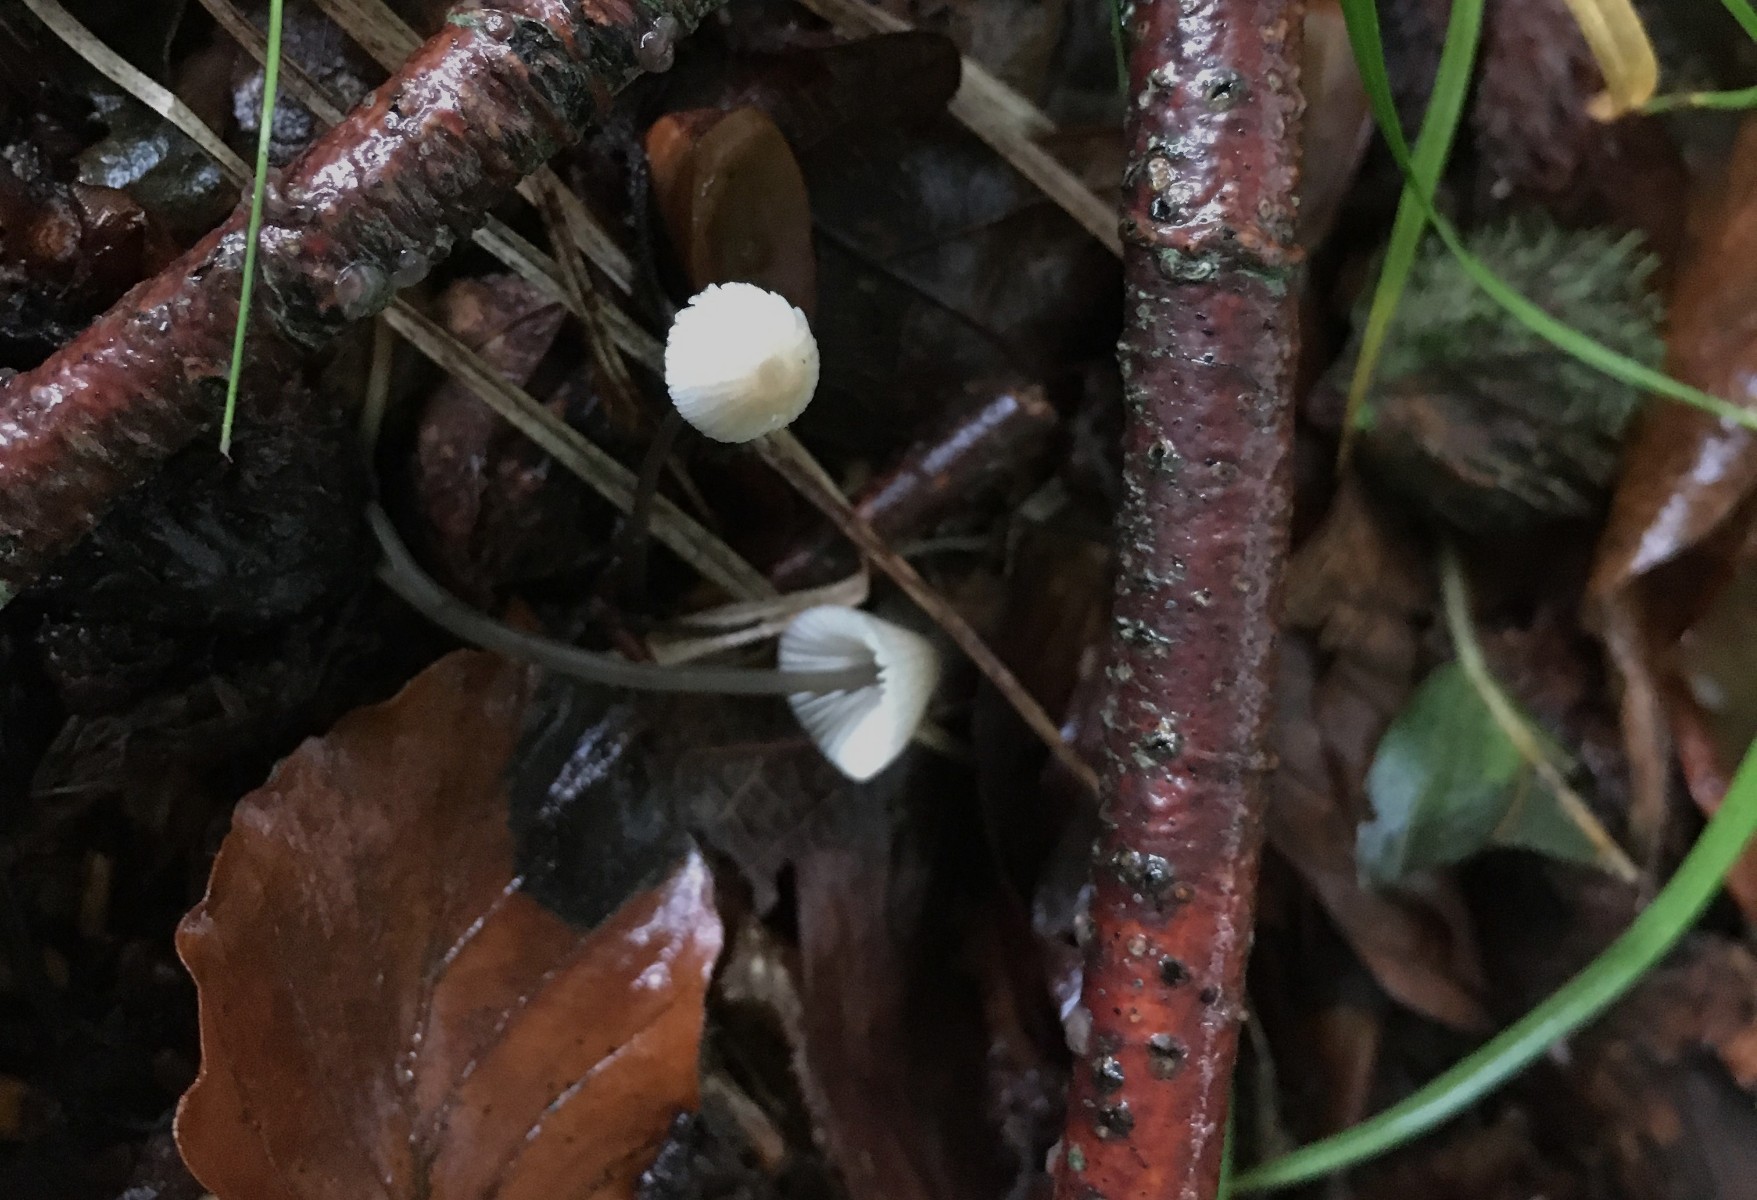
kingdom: Fungi
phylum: Basidiomycota
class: Agaricomycetes
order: Agaricales
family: Mycenaceae
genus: Mycena
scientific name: Mycena filopes
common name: jod-huesvamp
